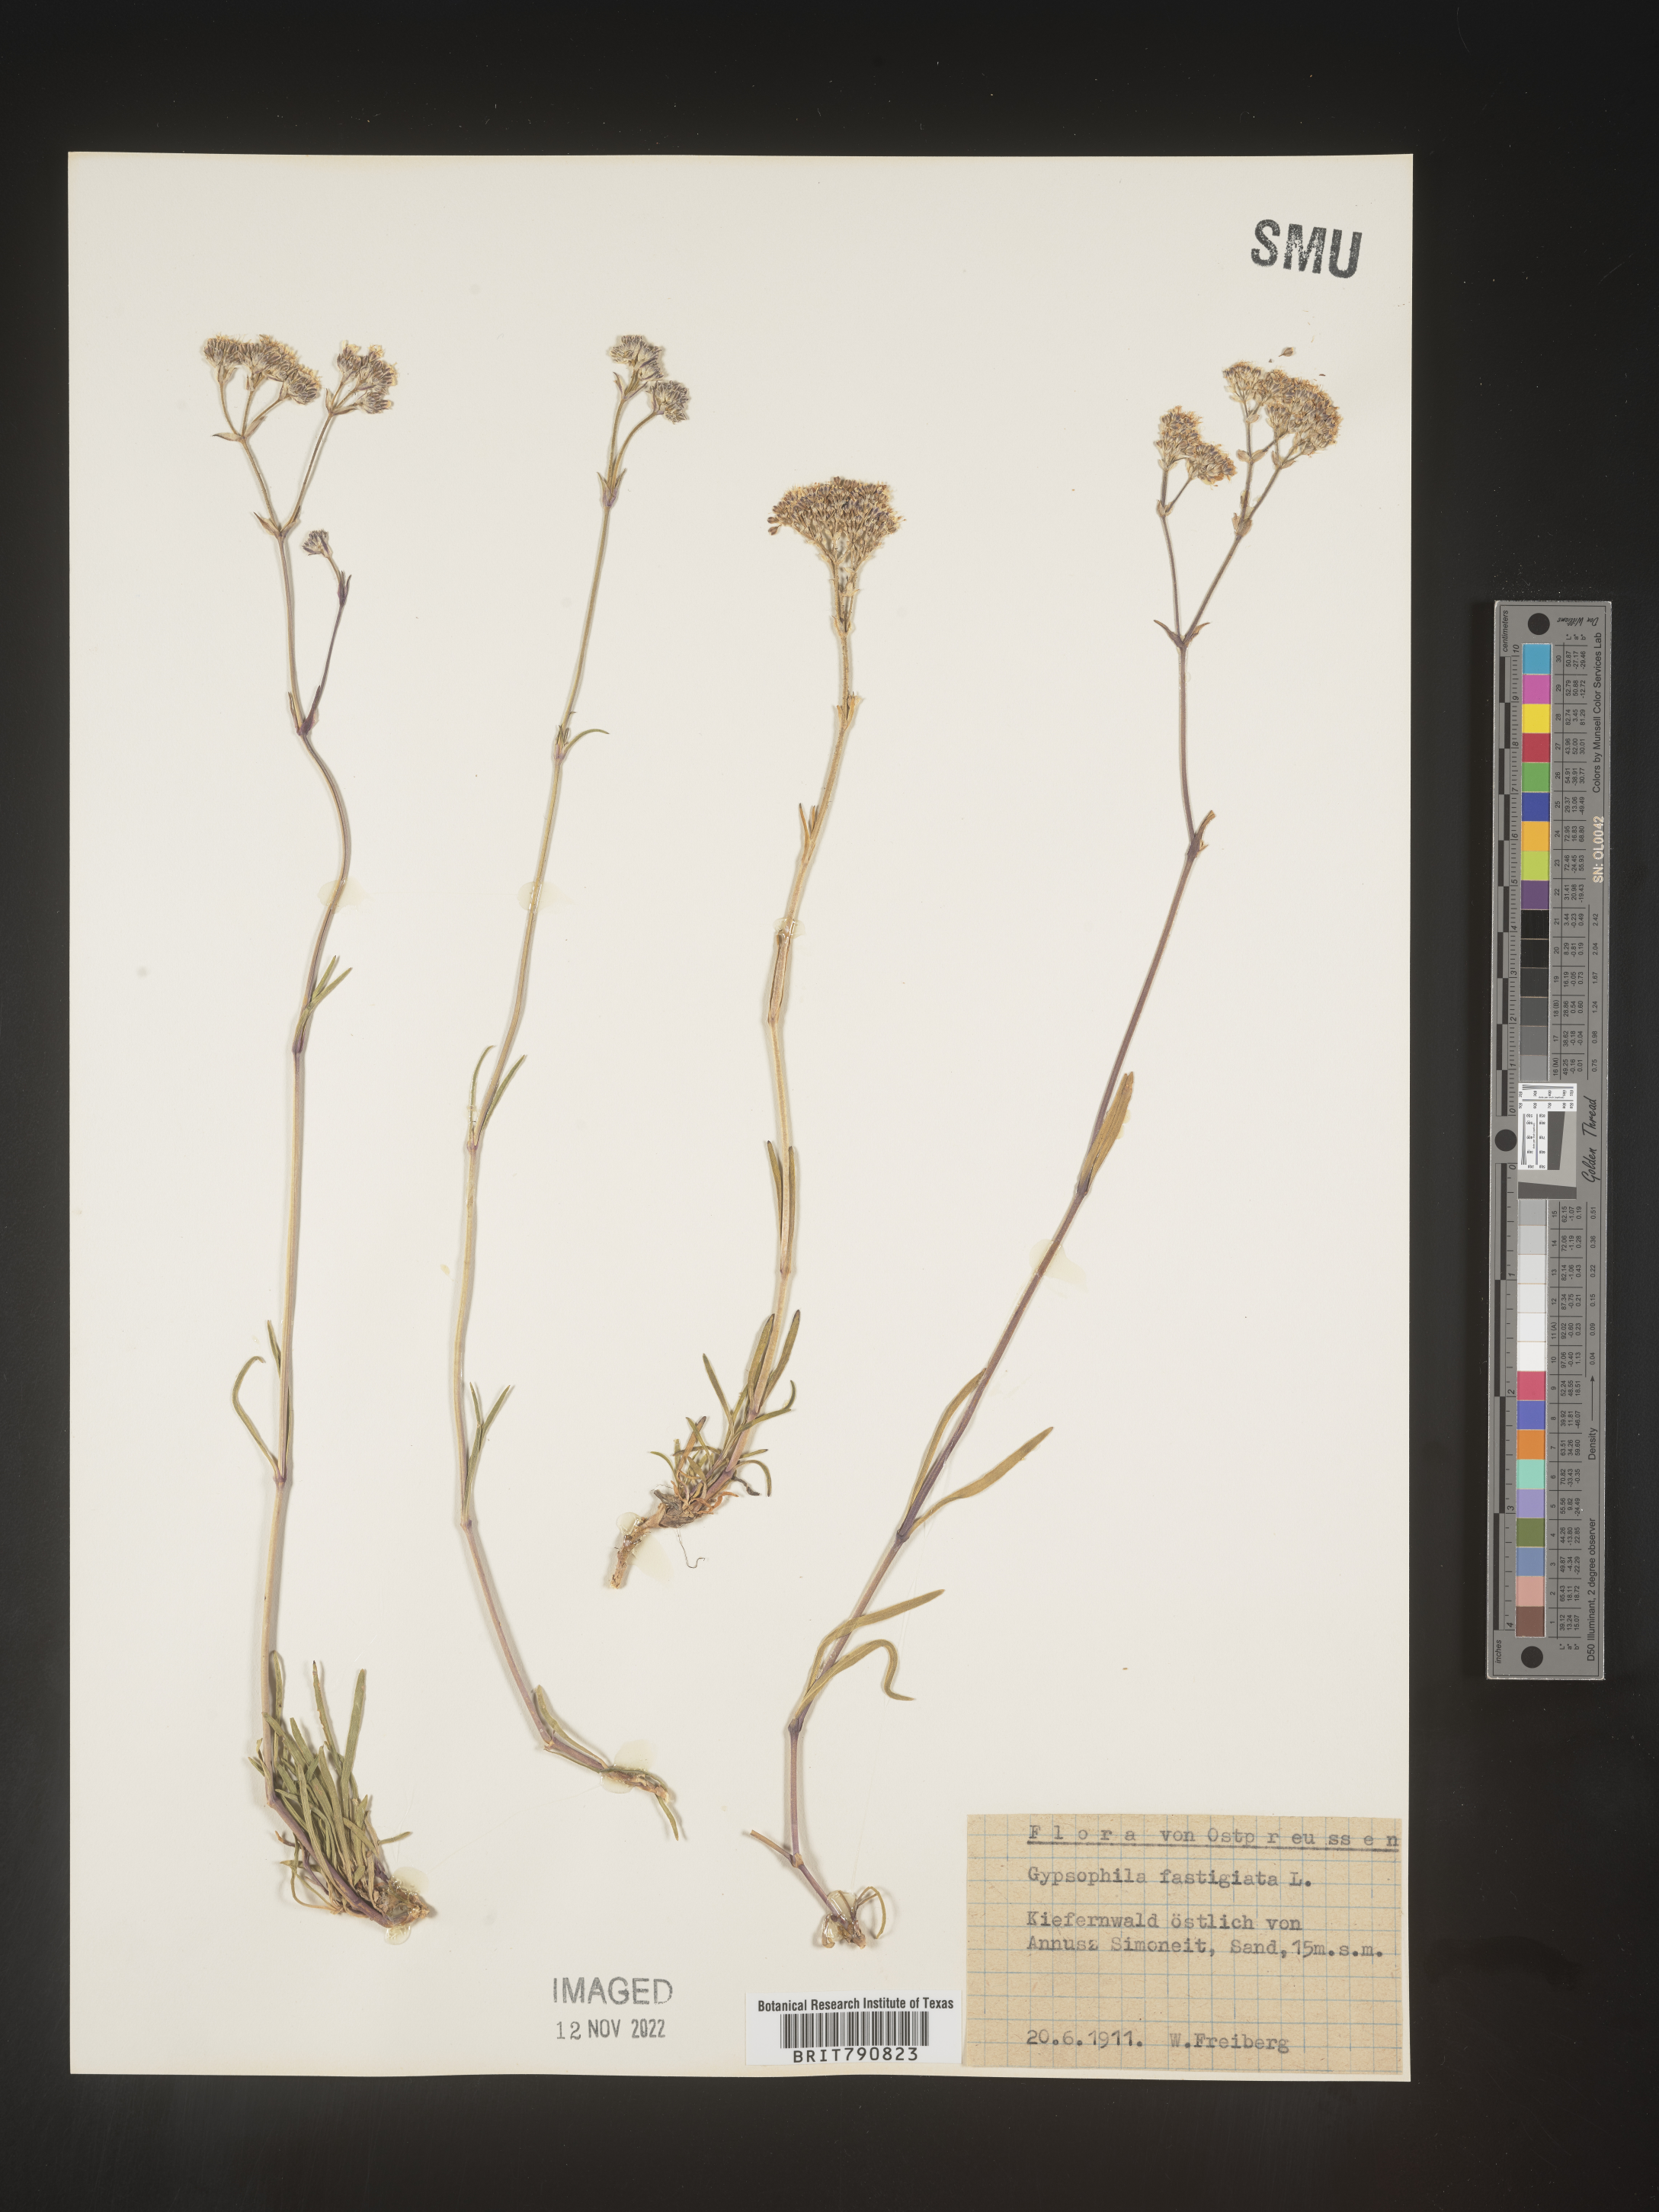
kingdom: Plantae
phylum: Tracheophyta
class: Magnoliopsida
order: Caryophyllales
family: Caryophyllaceae
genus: Gypsophila
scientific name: Gypsophila
